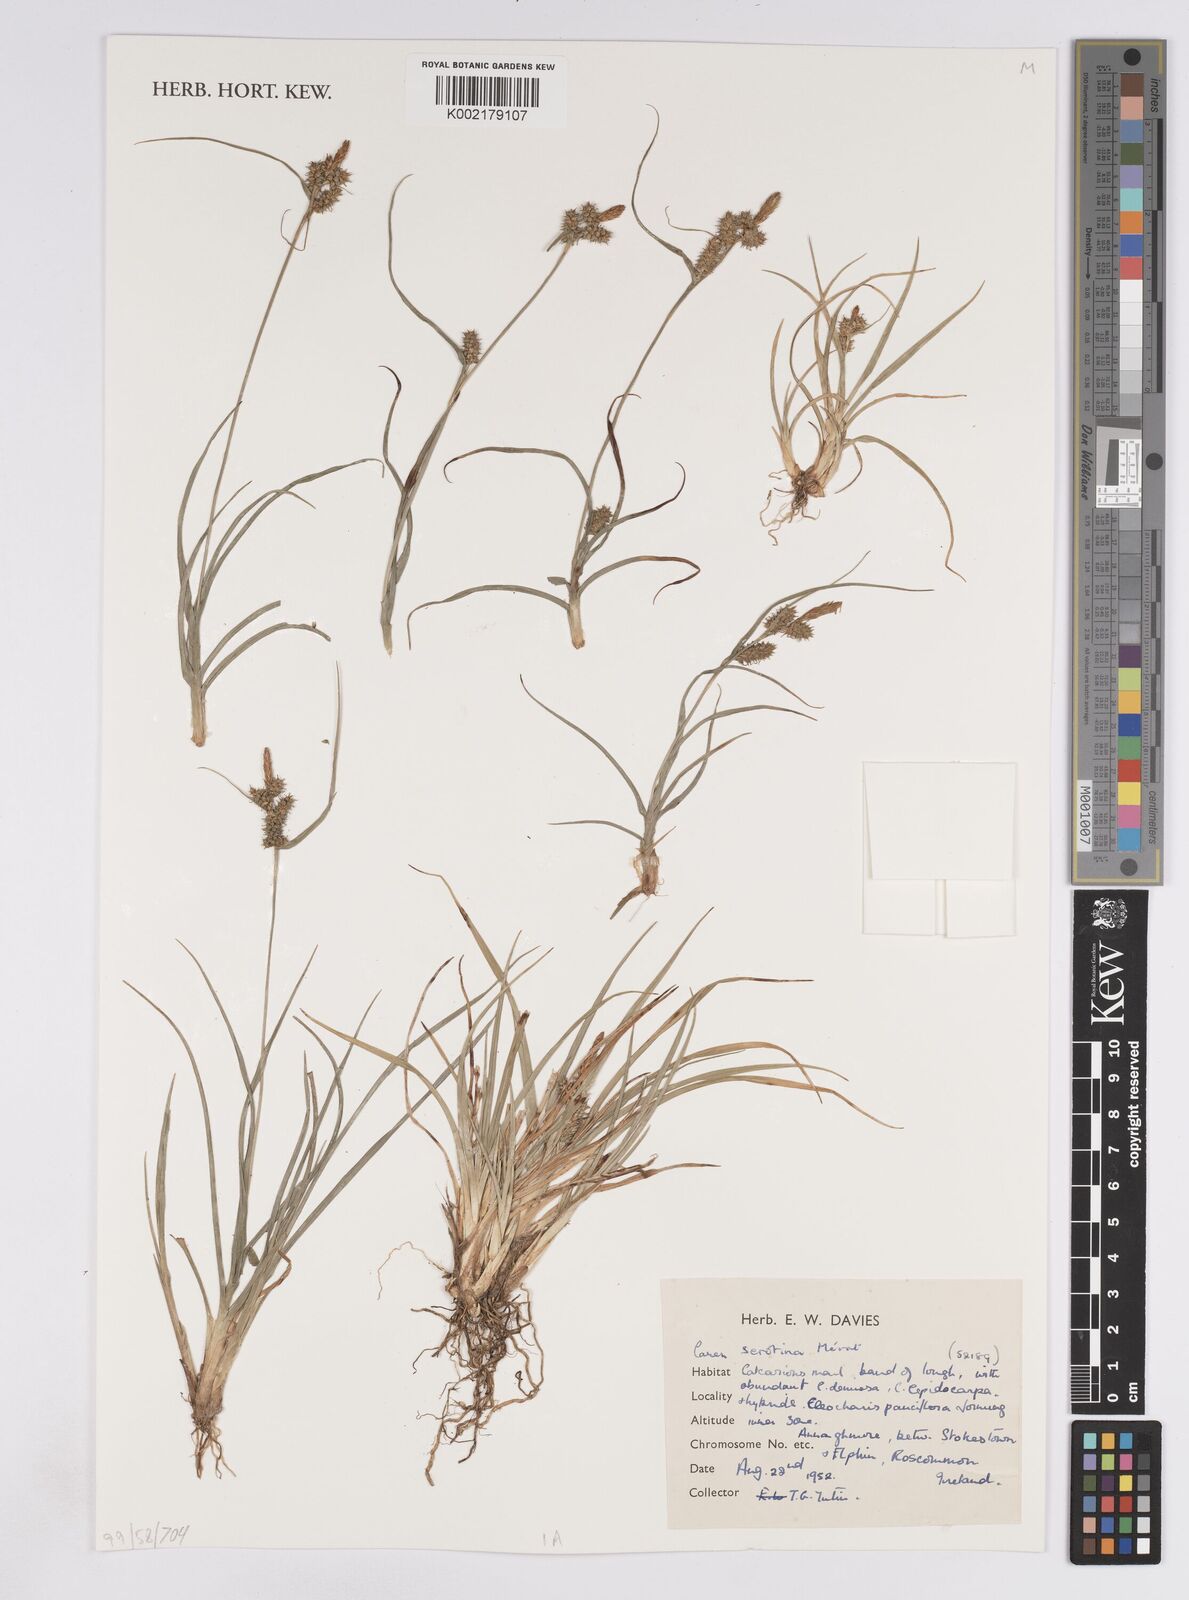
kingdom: Plantae
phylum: Tracheophyta
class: Liliopsida
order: Poales
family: Cyperaceae
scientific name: Cyperaceae
